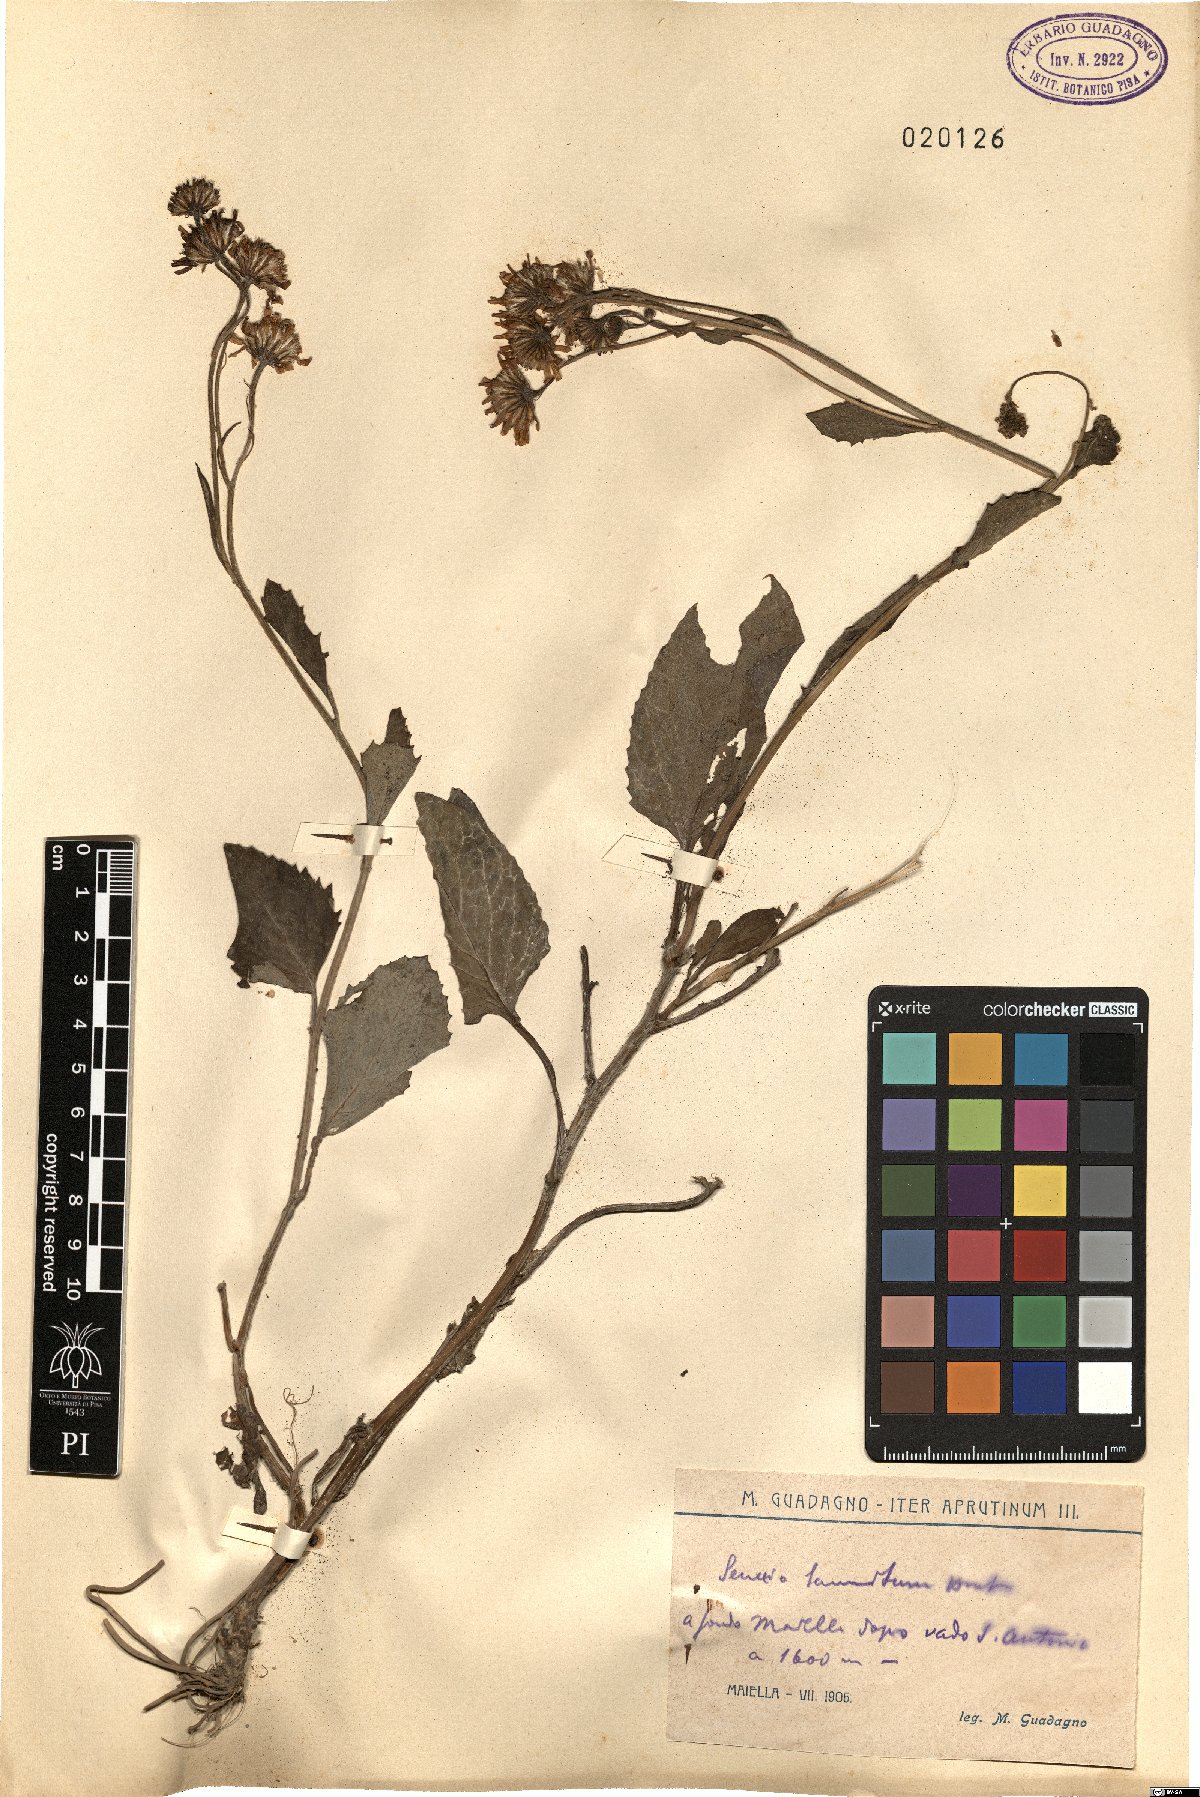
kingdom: Plantae
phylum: Tracheophyta
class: Magnoliopsida
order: Asterales
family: Asteraceae
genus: Jacobaea
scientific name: Jacobaea alpina
